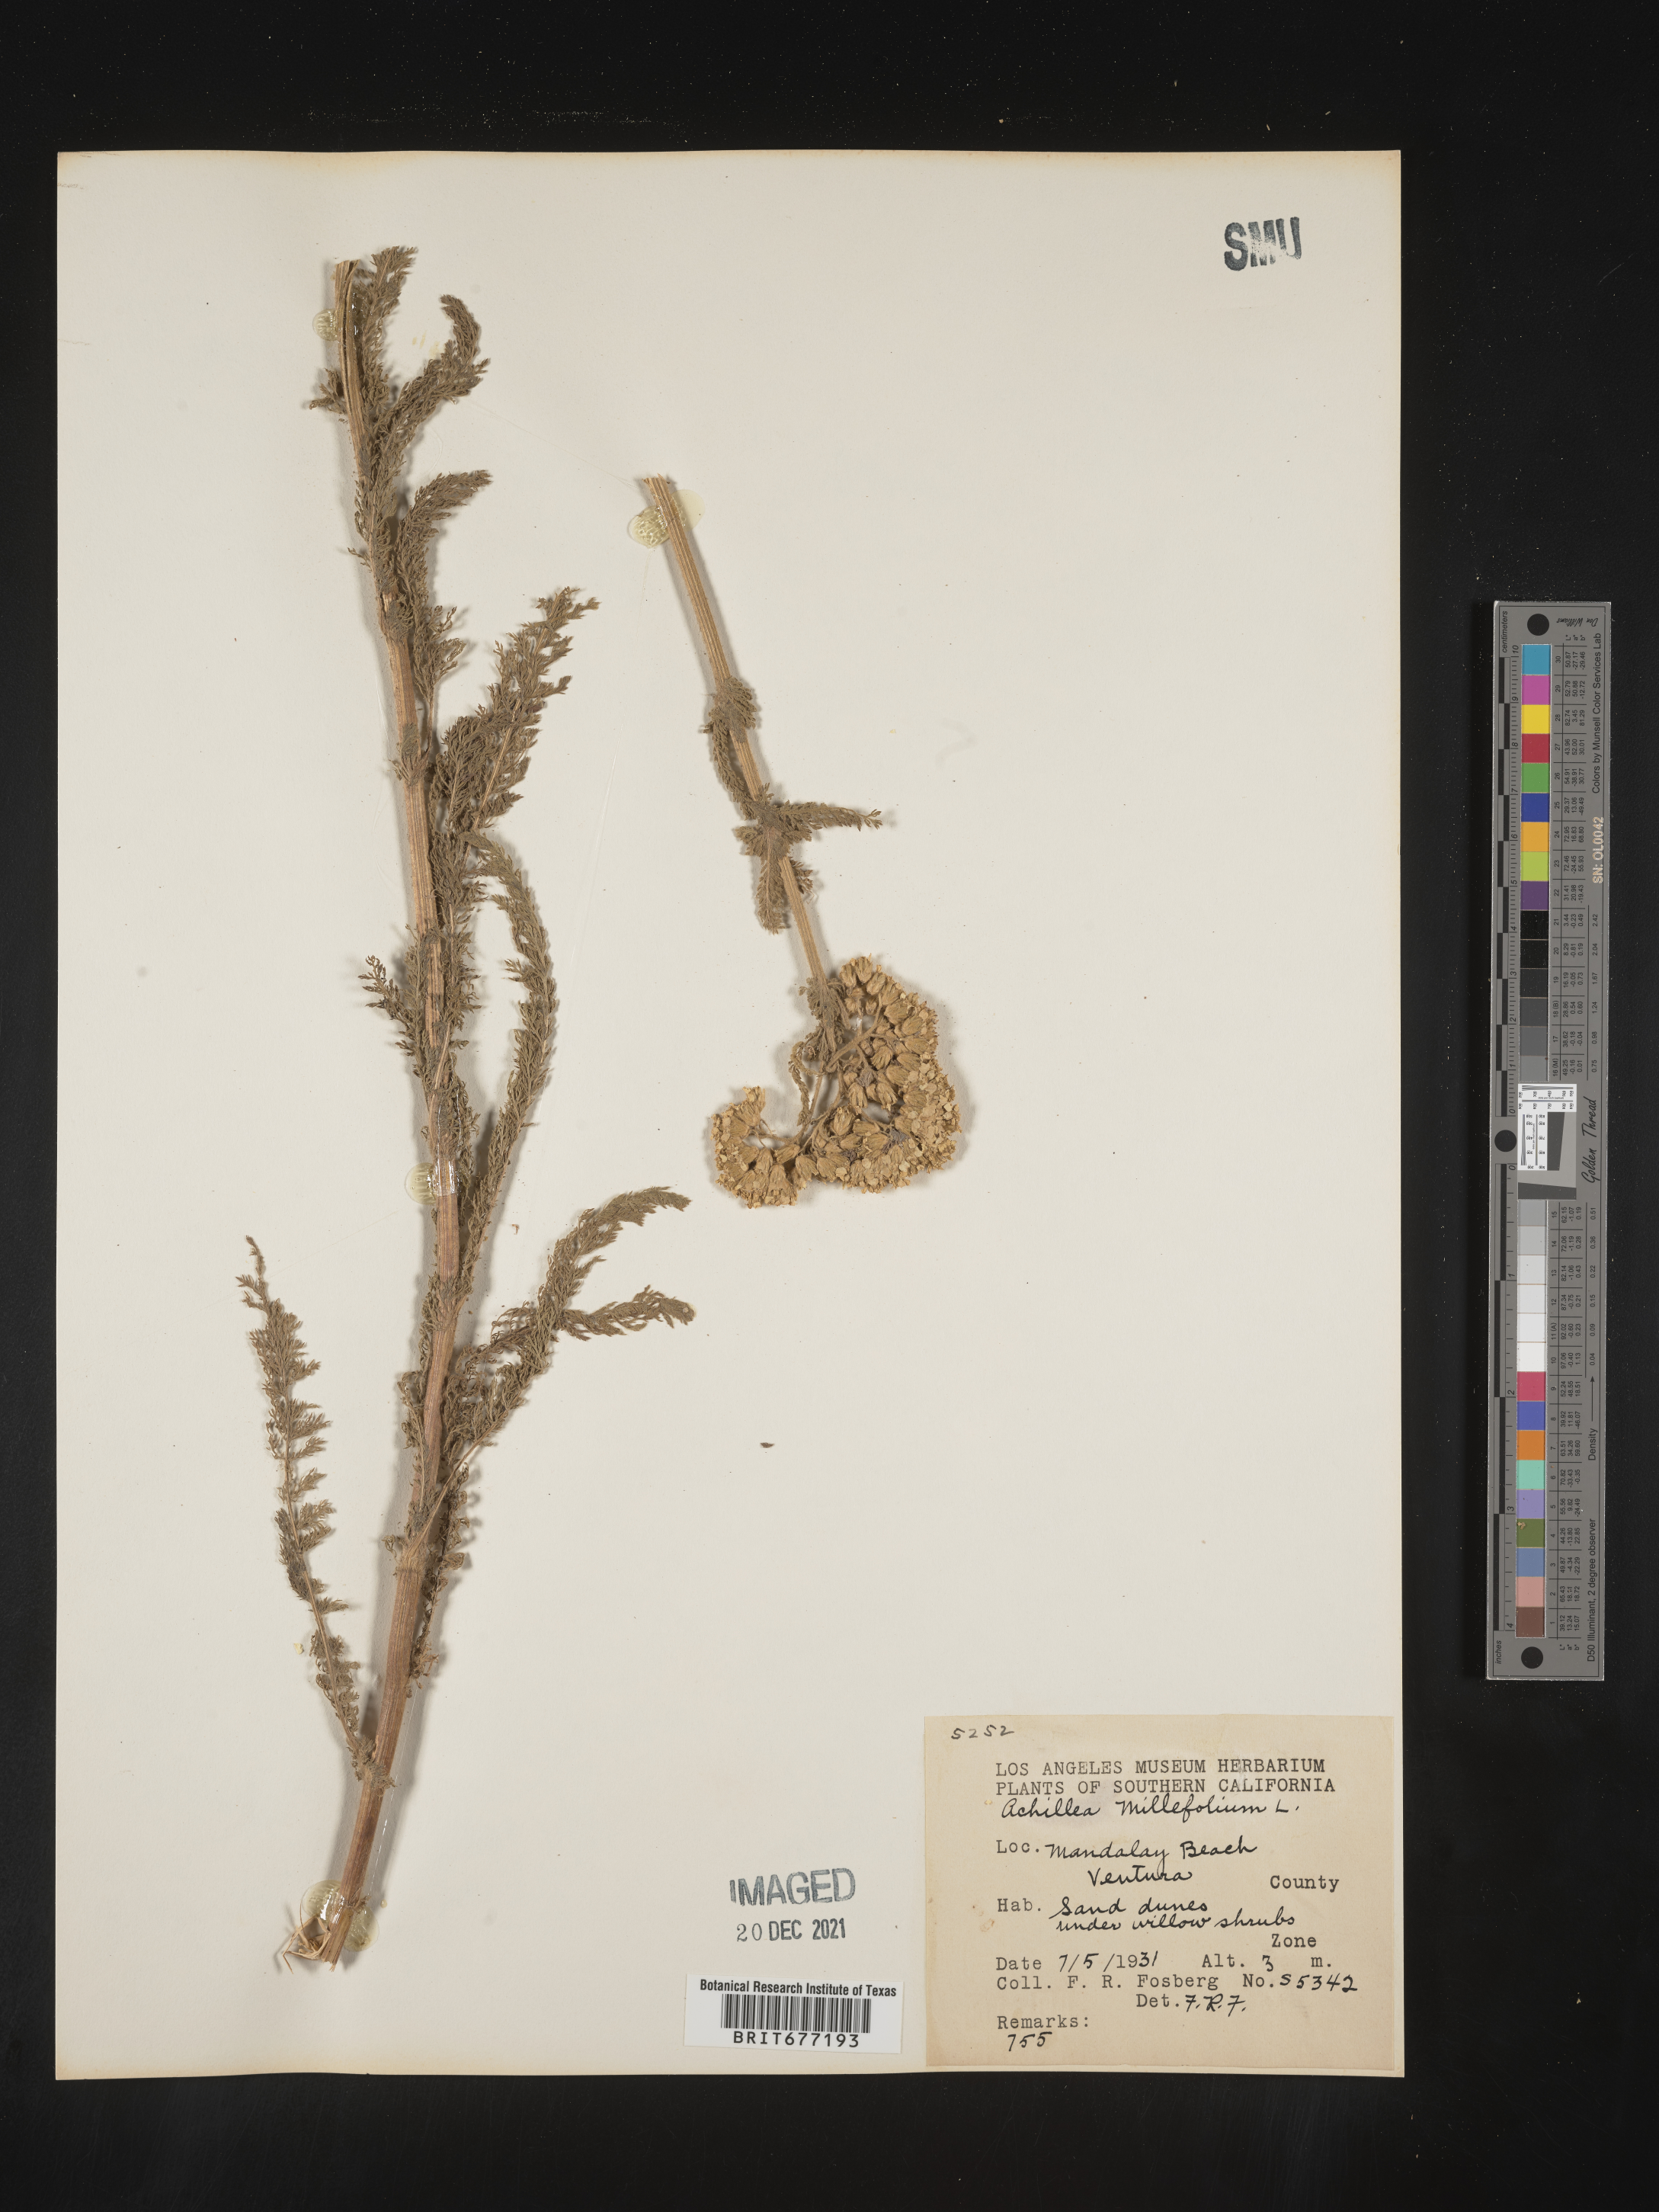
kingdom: Plantae
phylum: Tracheophyta
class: Magnoliopsida
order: Asterales
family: Asteraceae
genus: Achillea
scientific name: Achillea millefolium
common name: Yarrow
